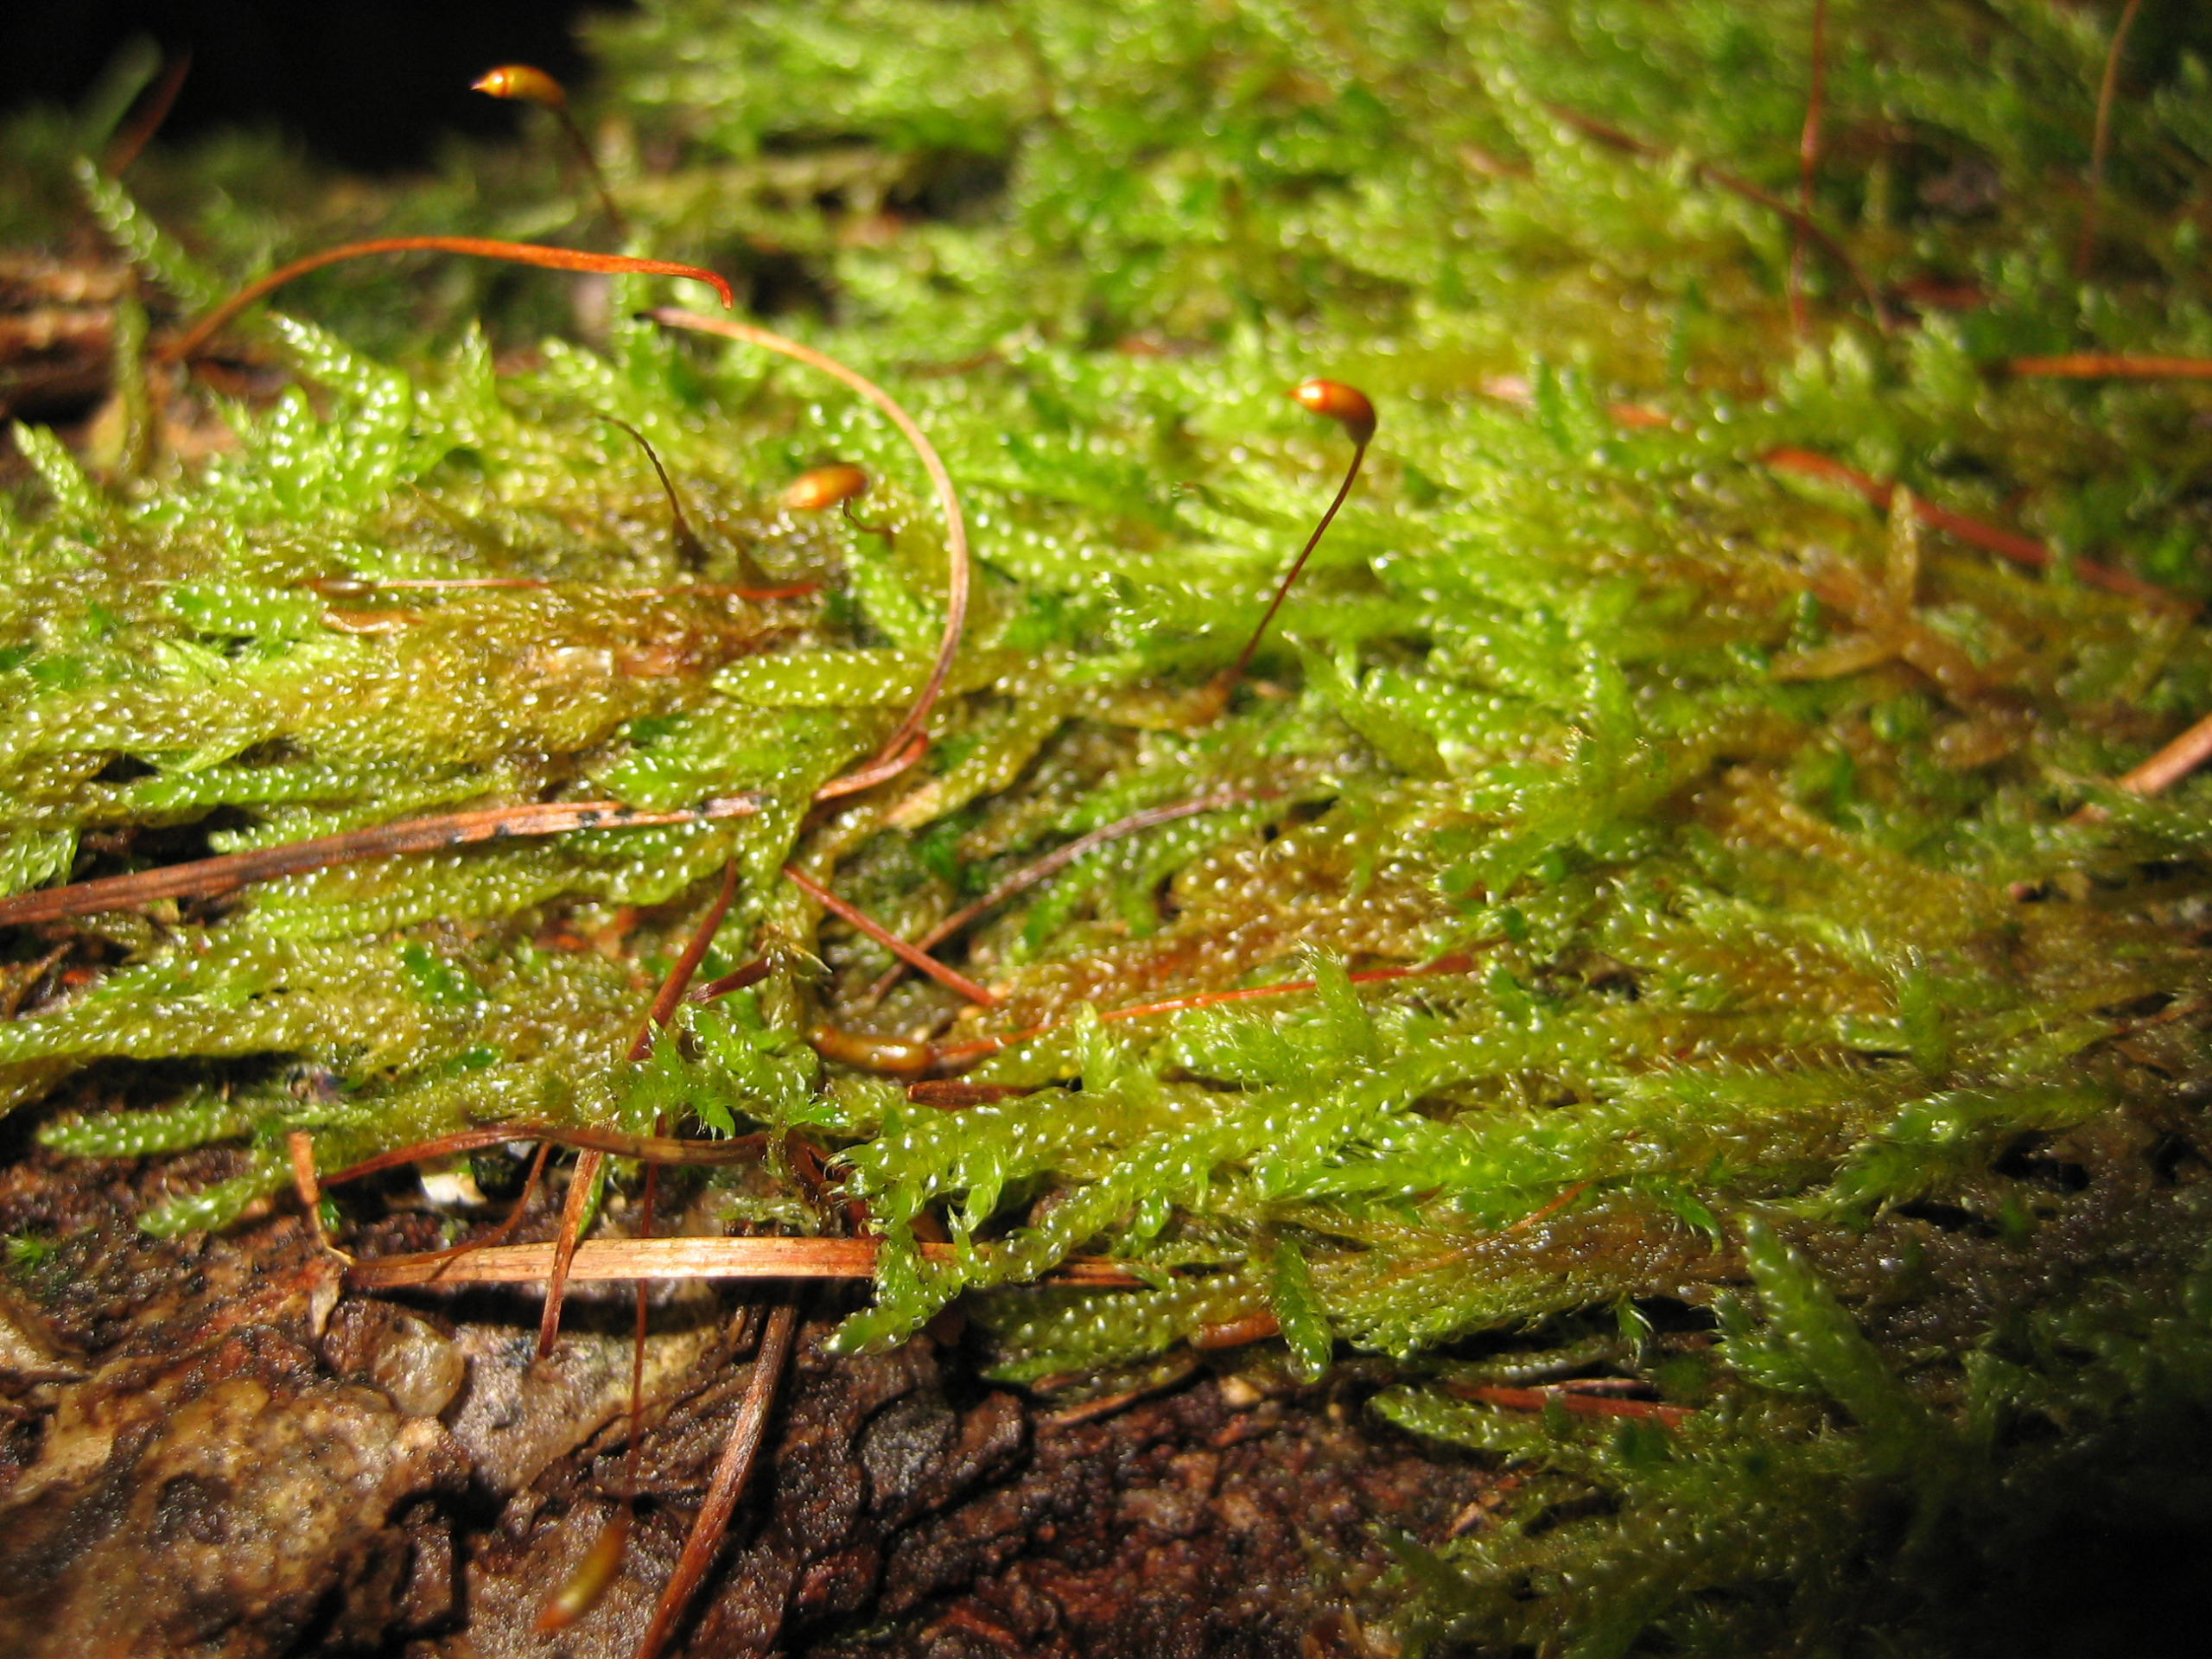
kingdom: Plantae
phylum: Bryophyta
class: Bryopsida
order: Hypnales
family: Hypnaceae
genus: Hypnum
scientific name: Hypnum cupressiforme
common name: Almindelig cypresmos
